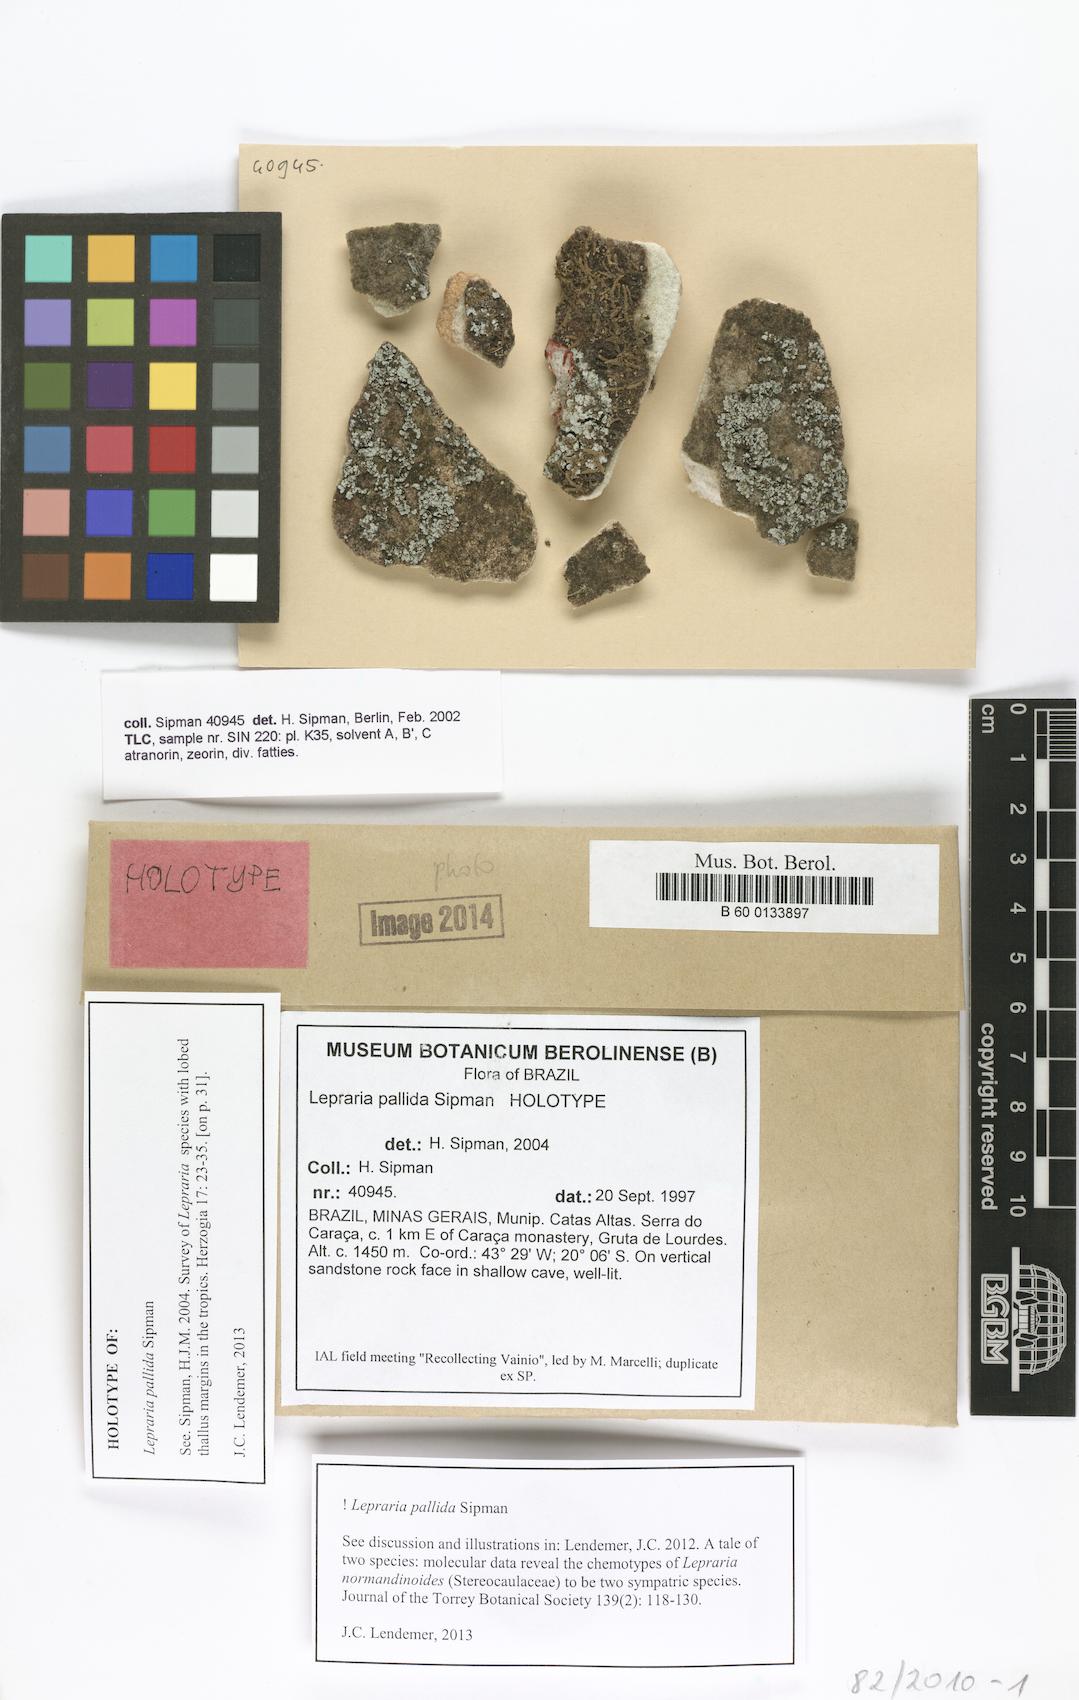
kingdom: Fungi
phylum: Ascomycota
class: Lecanoromycetes
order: Lecanorales
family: Stereocaulaceae
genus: Lepraria
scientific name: Lepraria pallida
